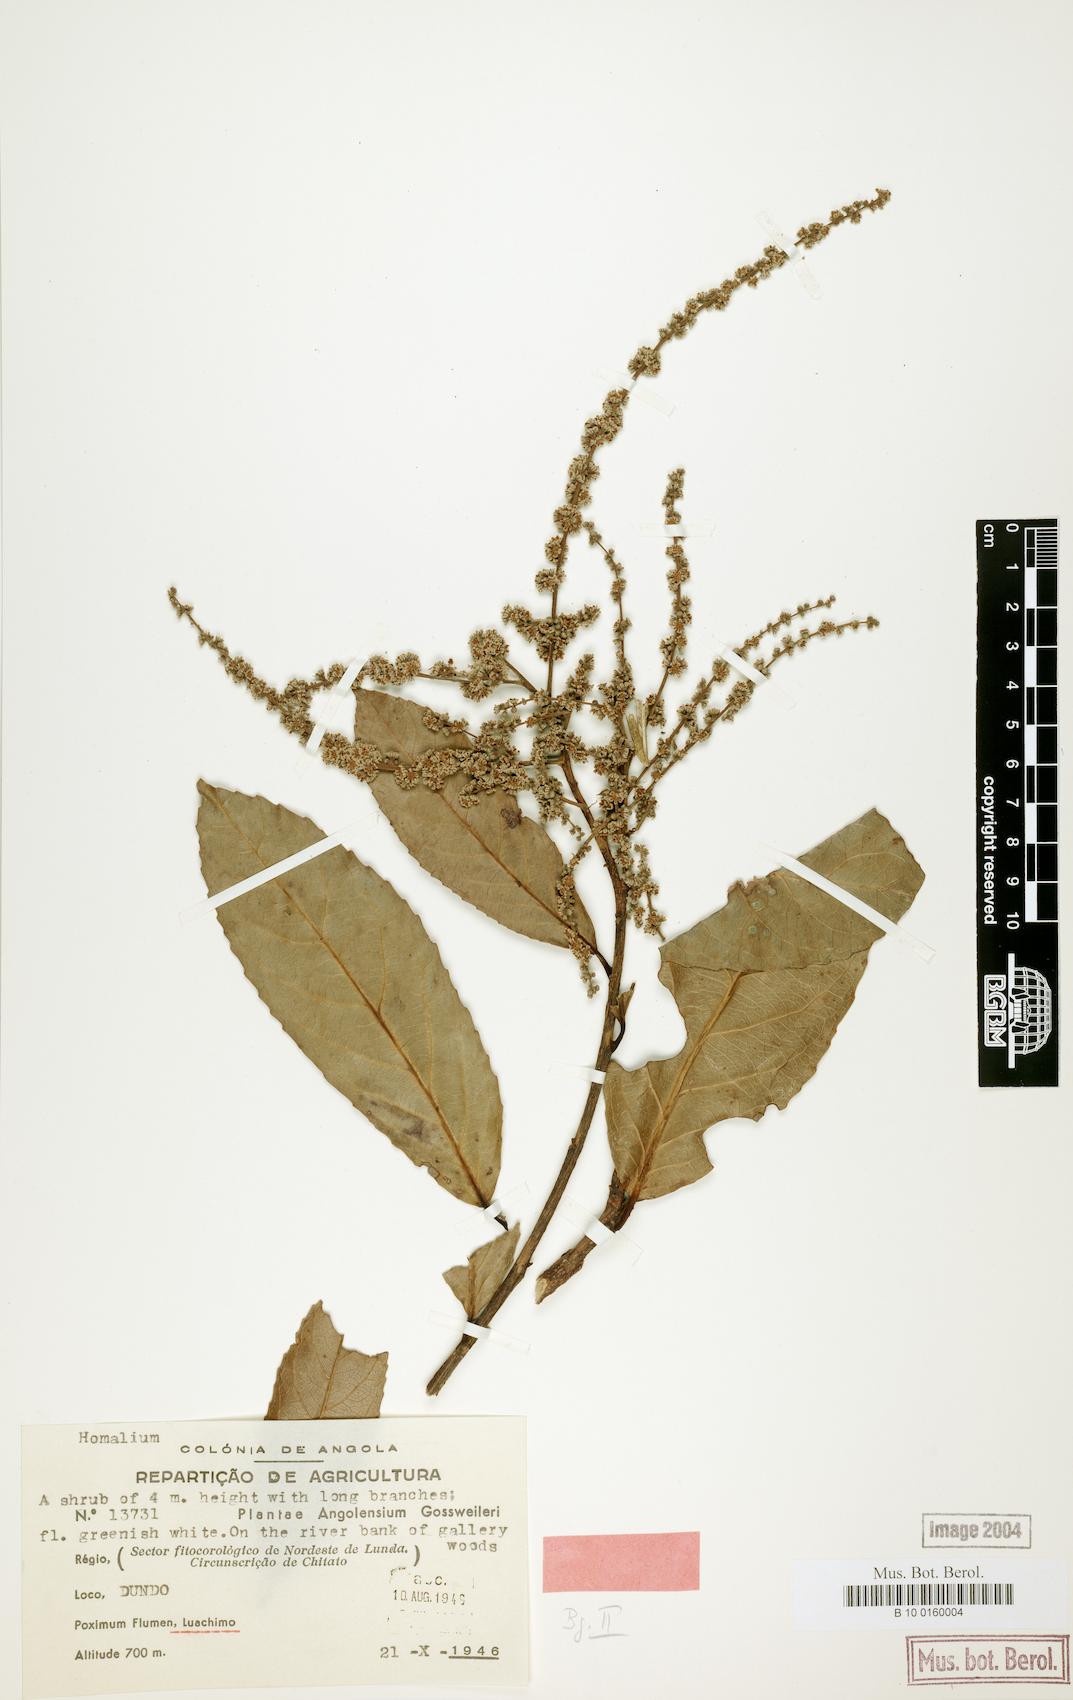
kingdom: Plantae
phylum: Tracheophyta
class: Magnoliopsida
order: Malpighiales
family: Salicaceae
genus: Homalium
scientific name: Homalium africanum
